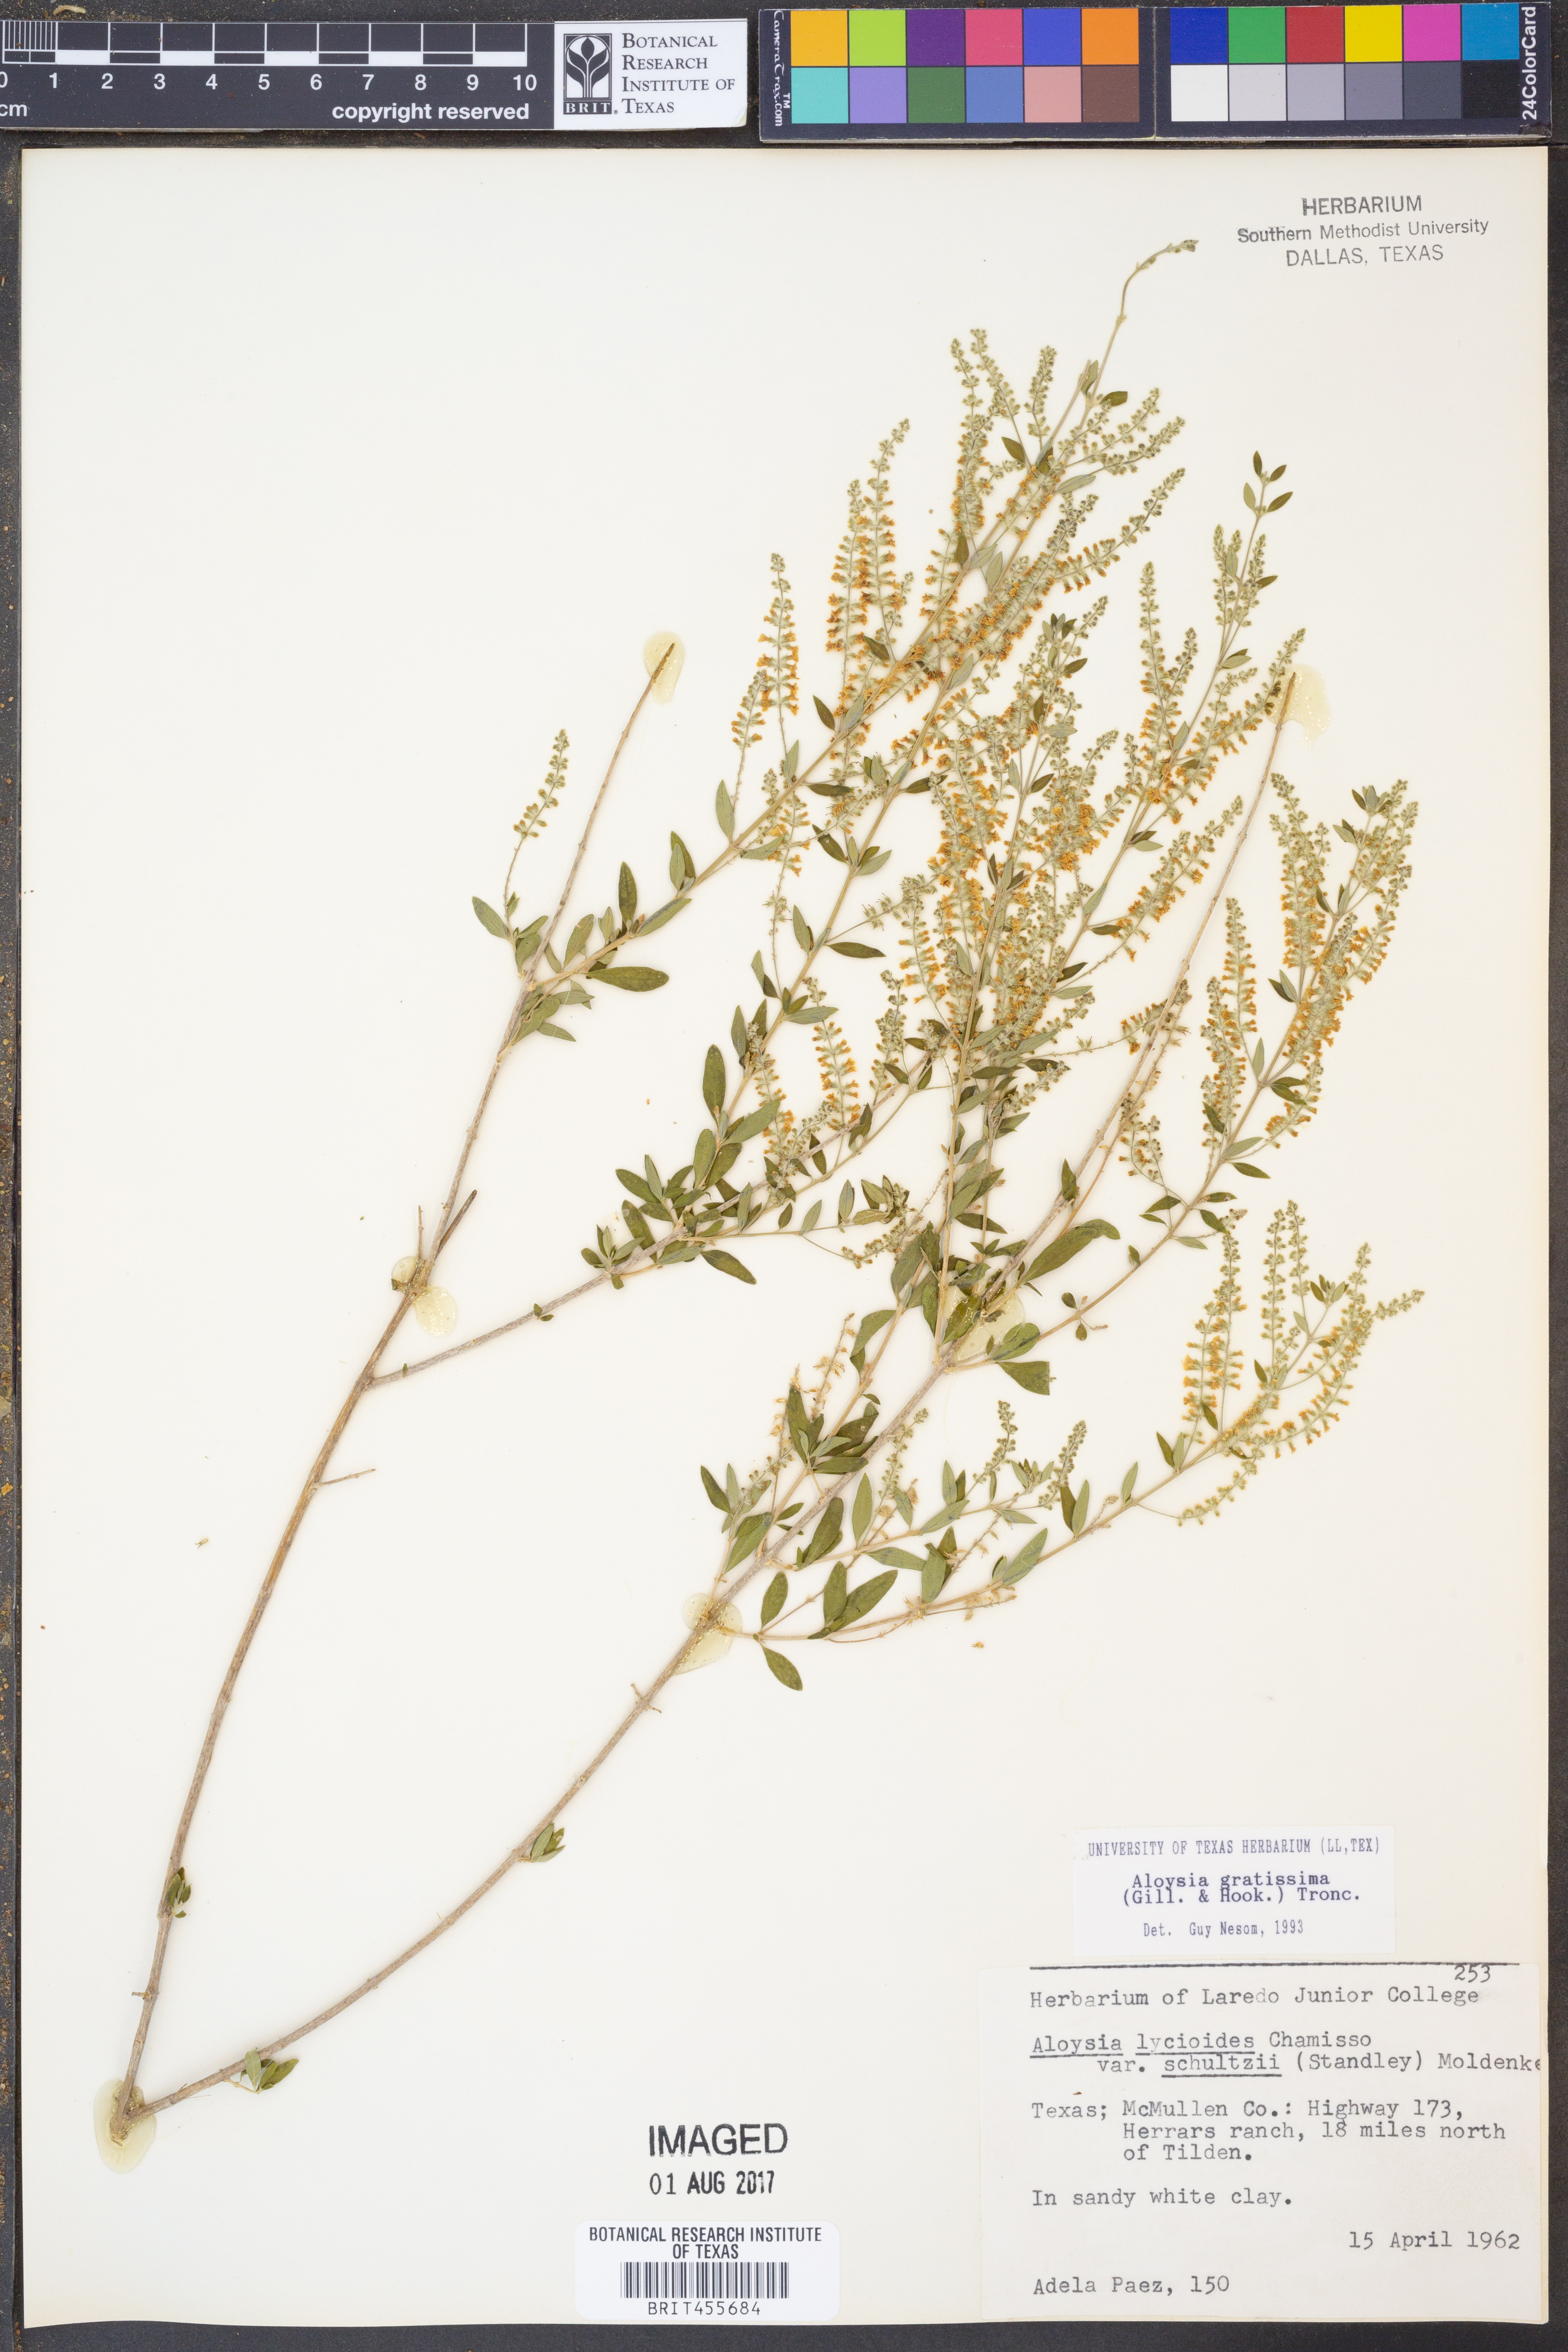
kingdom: Plantae
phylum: Tracheophyta
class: Magnoliopsida
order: Lamiales
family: Verbenaceae
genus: Aloysia
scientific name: Aloysia gratissima
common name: Common bee-brush
